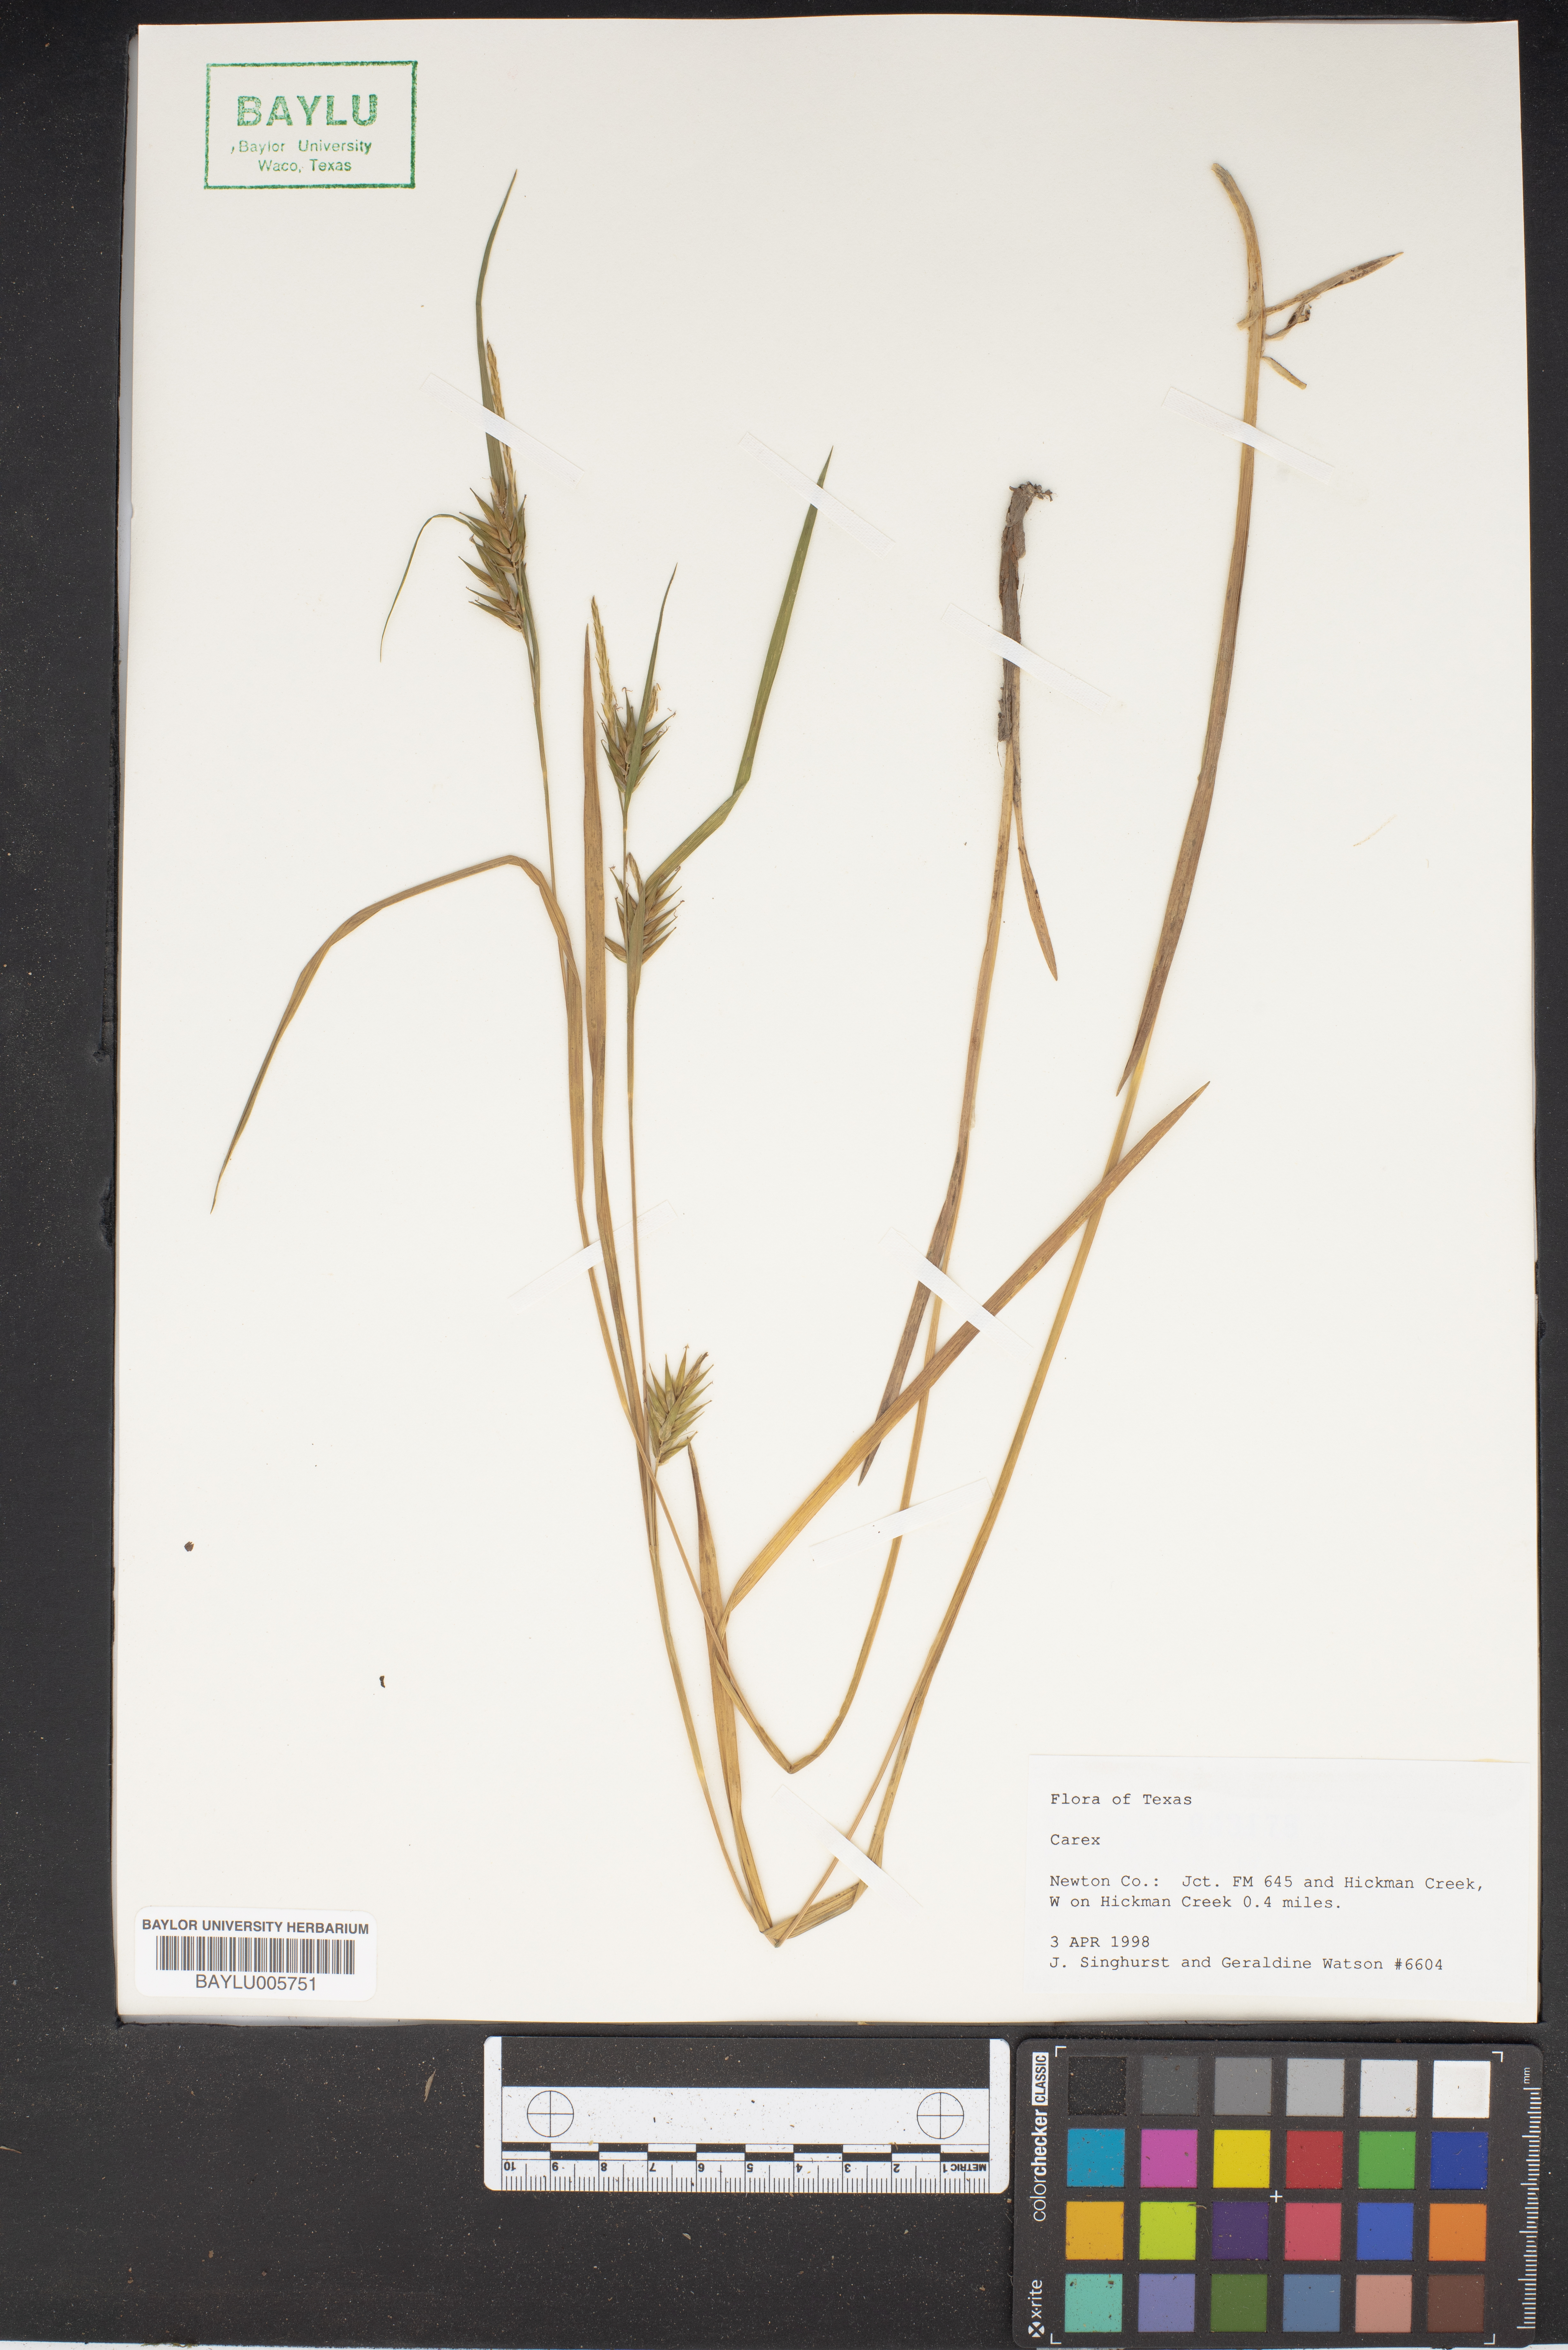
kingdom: Plantae
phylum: Tracheophyta
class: Liliopsida
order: Poales
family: Cyperaceae
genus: Carex
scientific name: Carex
